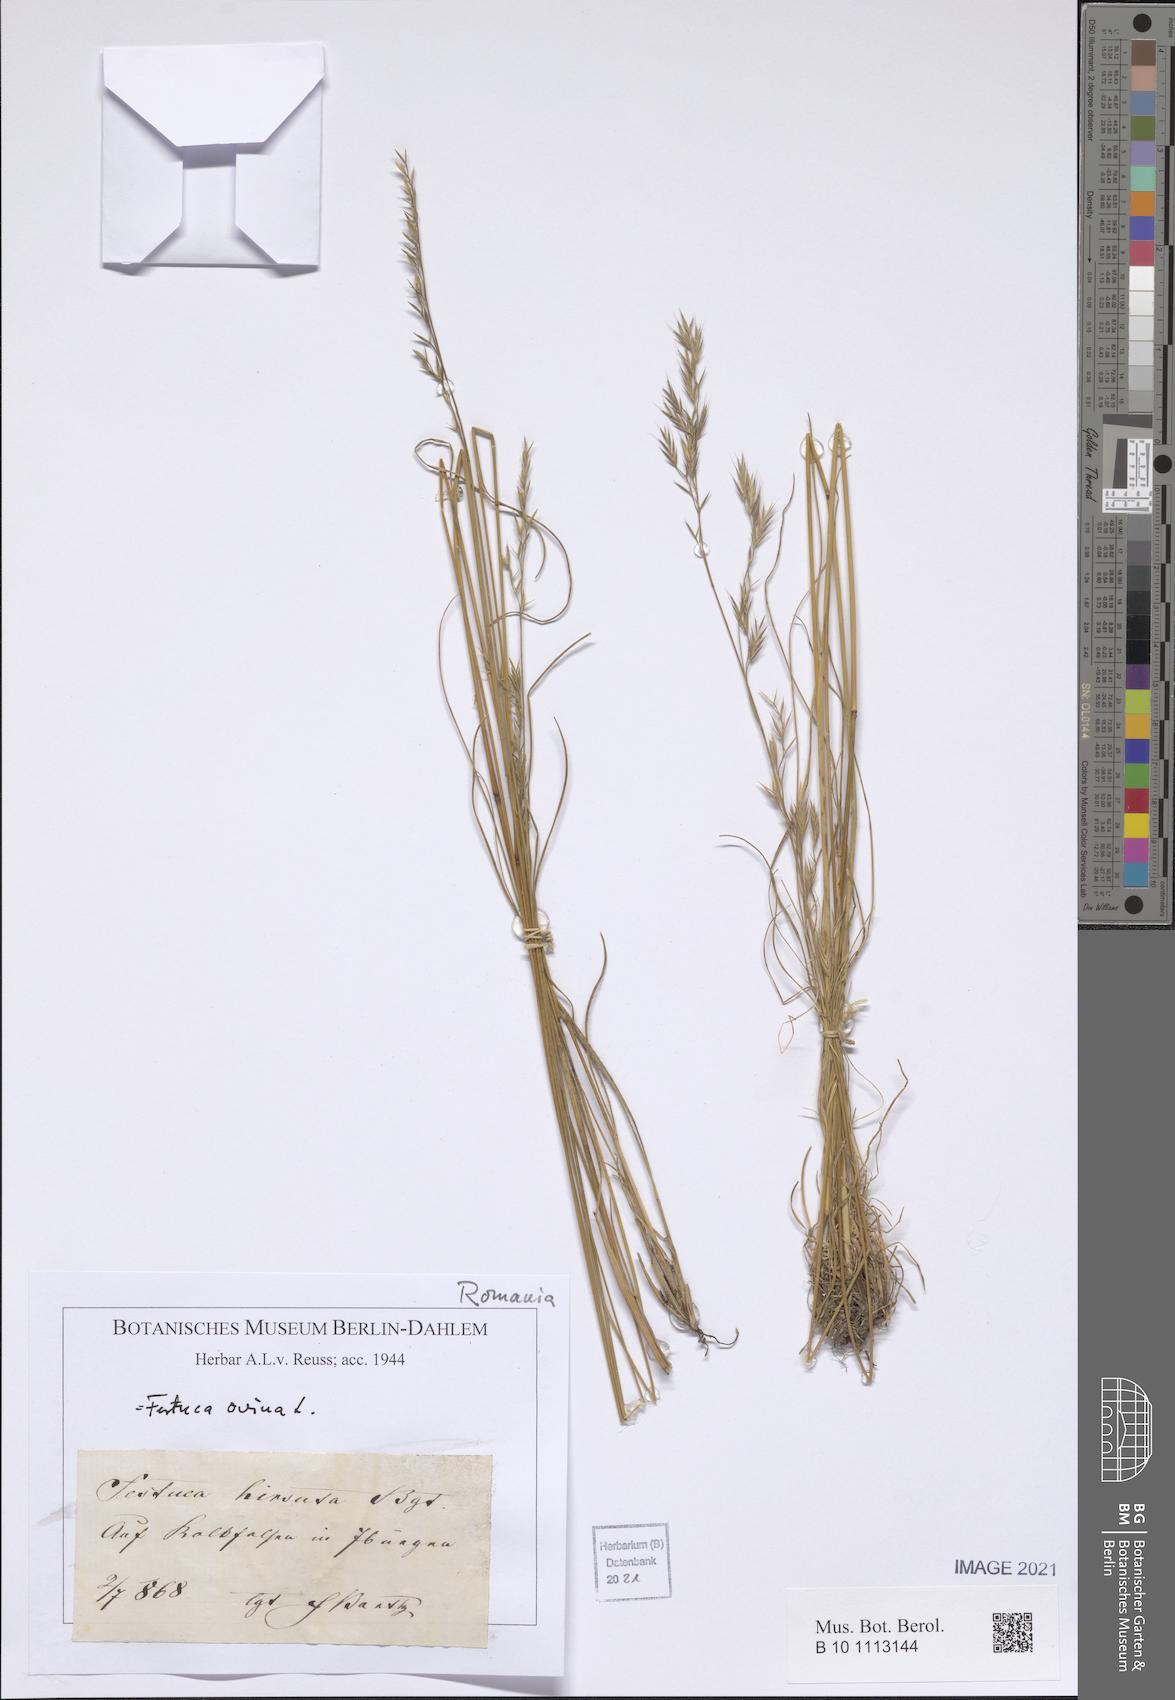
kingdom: Plantae
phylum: Tracheophyta
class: Liliopsida
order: Poales
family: Poaceae
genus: Festuca
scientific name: Festuca ovina
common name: Sheep fescue
